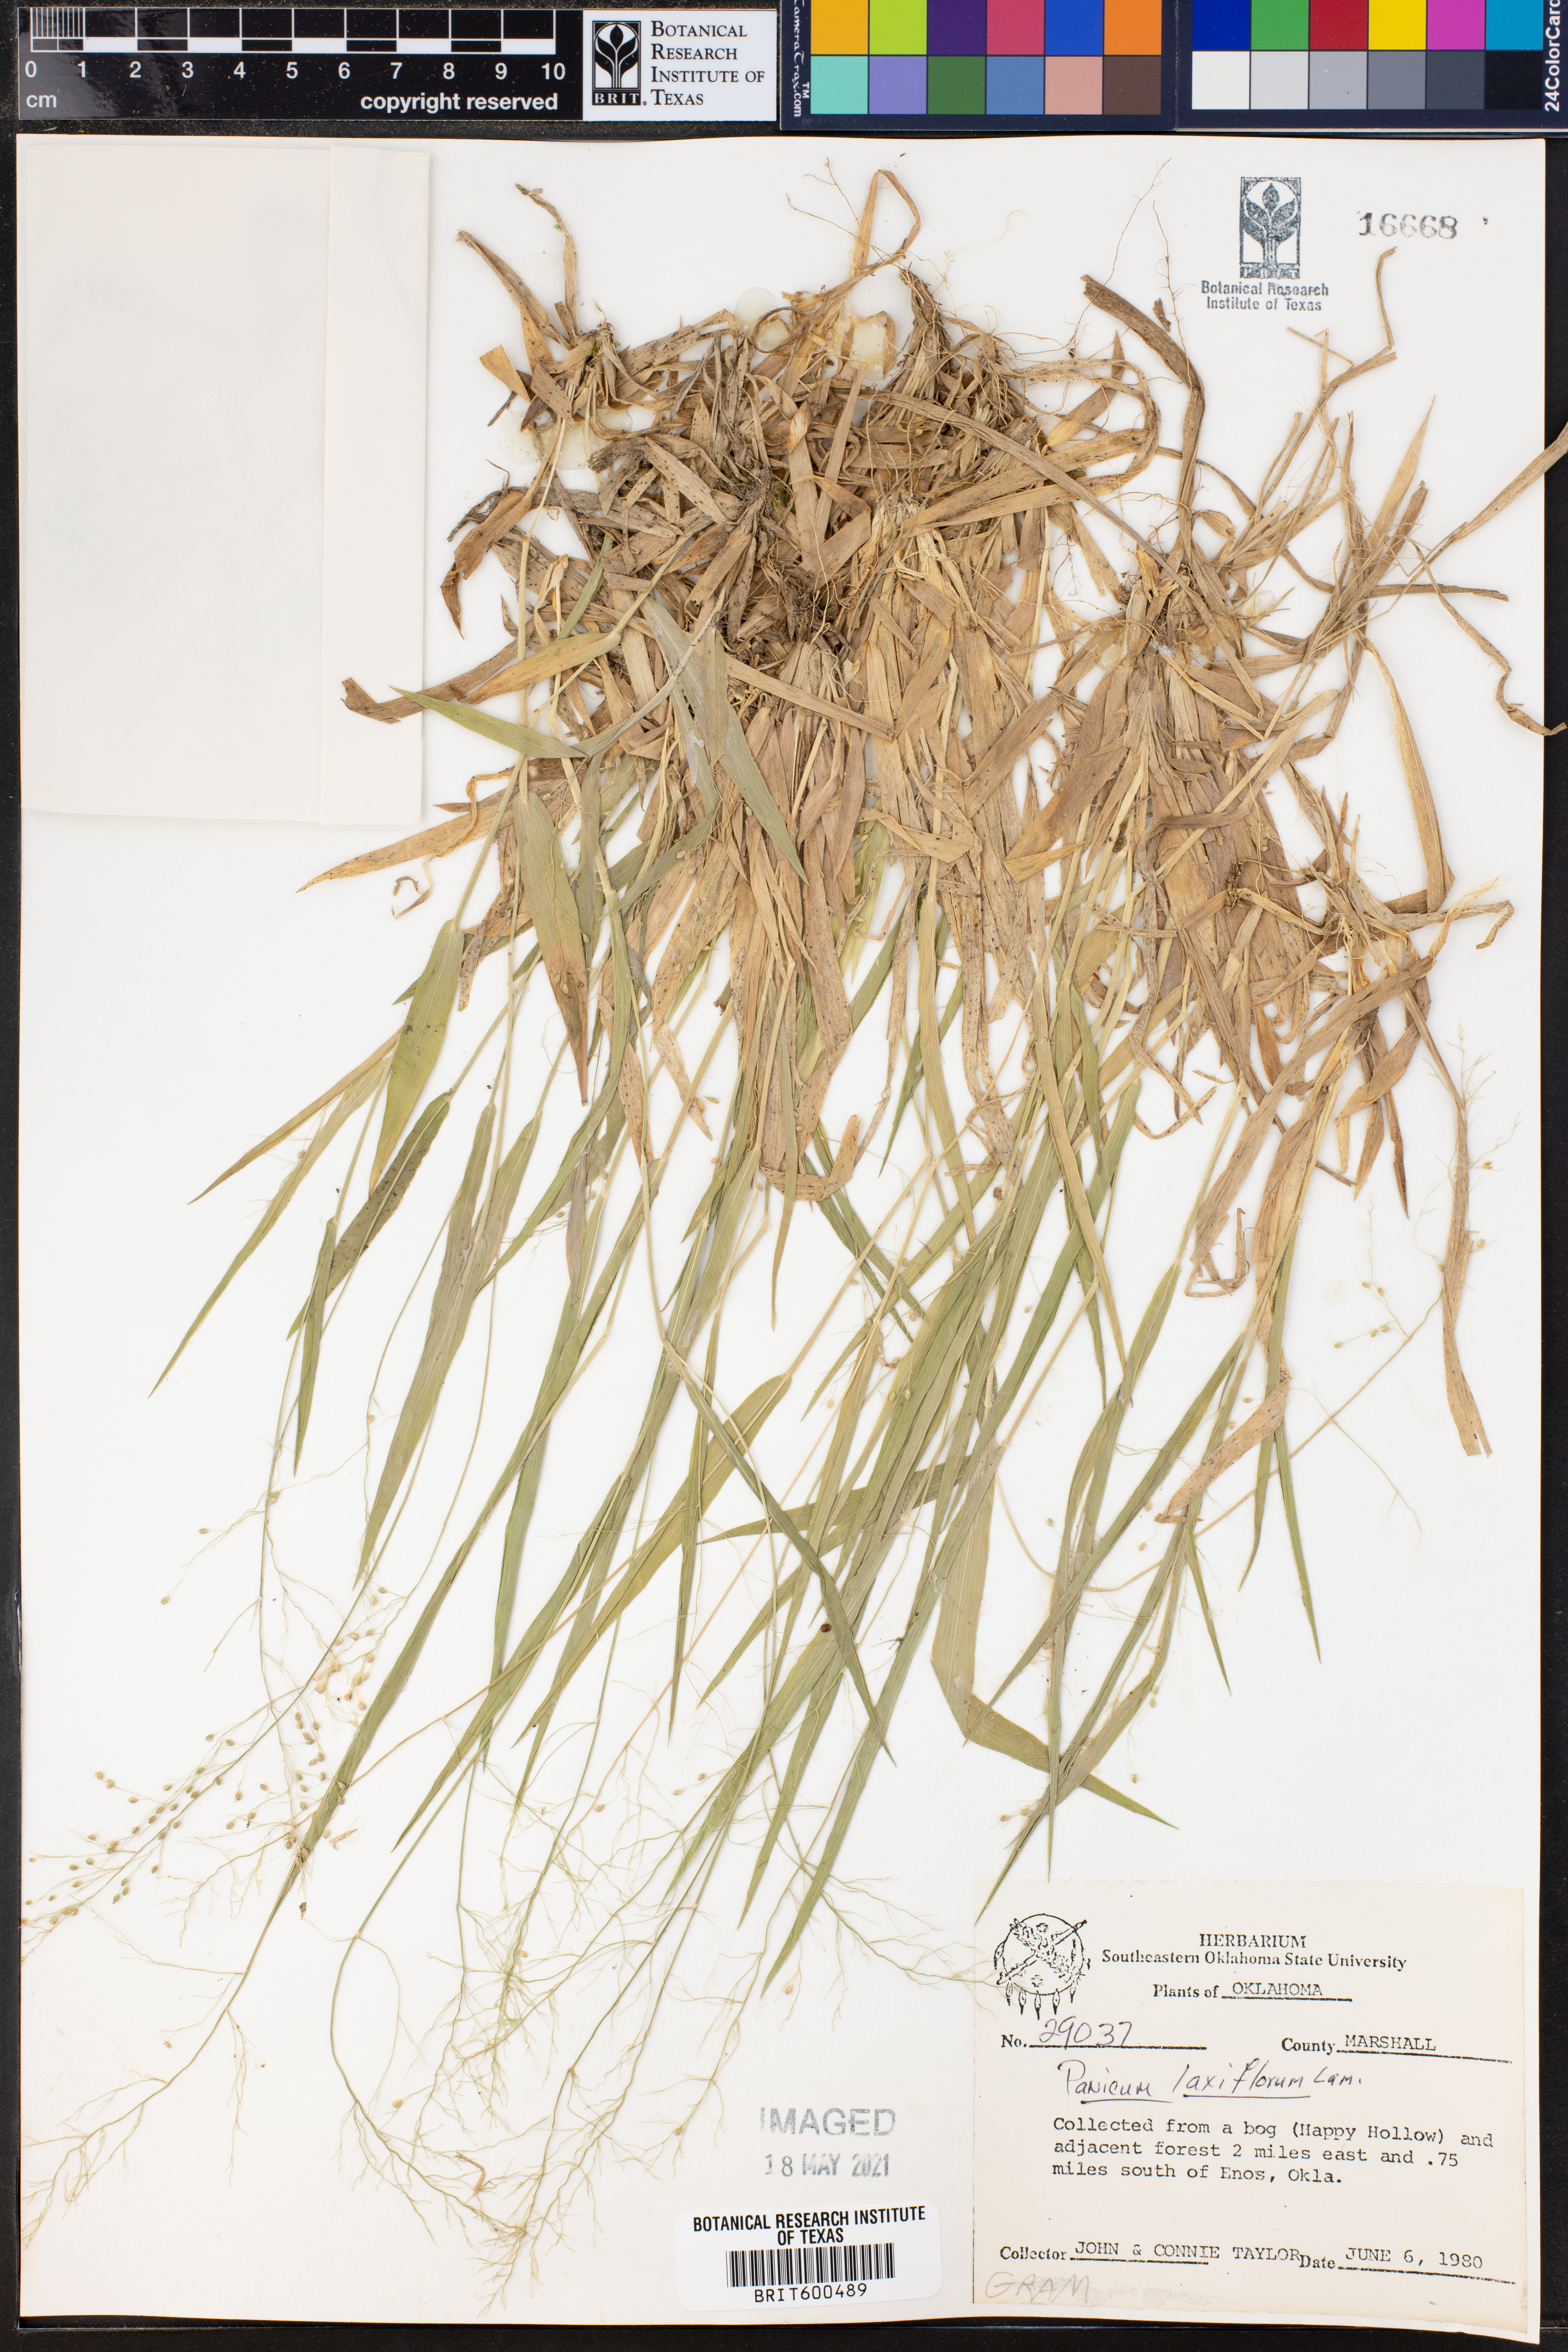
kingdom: Plantae
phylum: Tracheophyta
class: Liliopsida
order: Poales
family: Poaceae
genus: Dichanthelium
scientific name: Dichanthelium laxiflorum
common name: Soft-tuft panic grass
